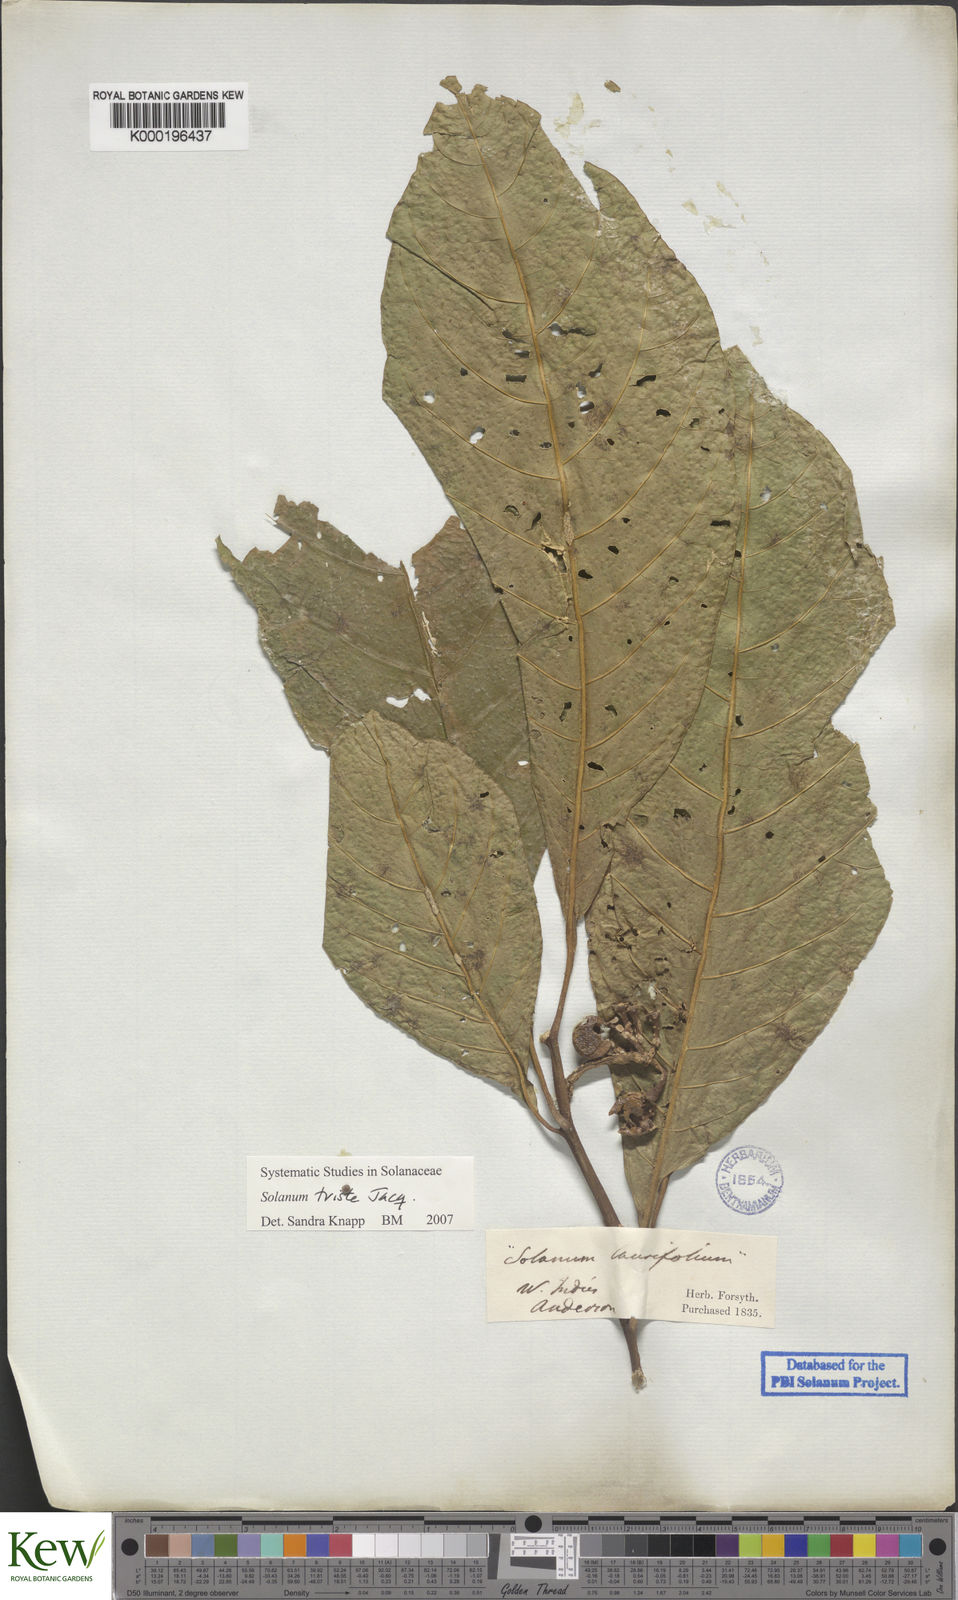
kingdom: Plantae
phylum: Tracheophyta
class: Magnoliopsida
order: Solanales
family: Solanaceae
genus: Solanum
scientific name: Solanum triste
